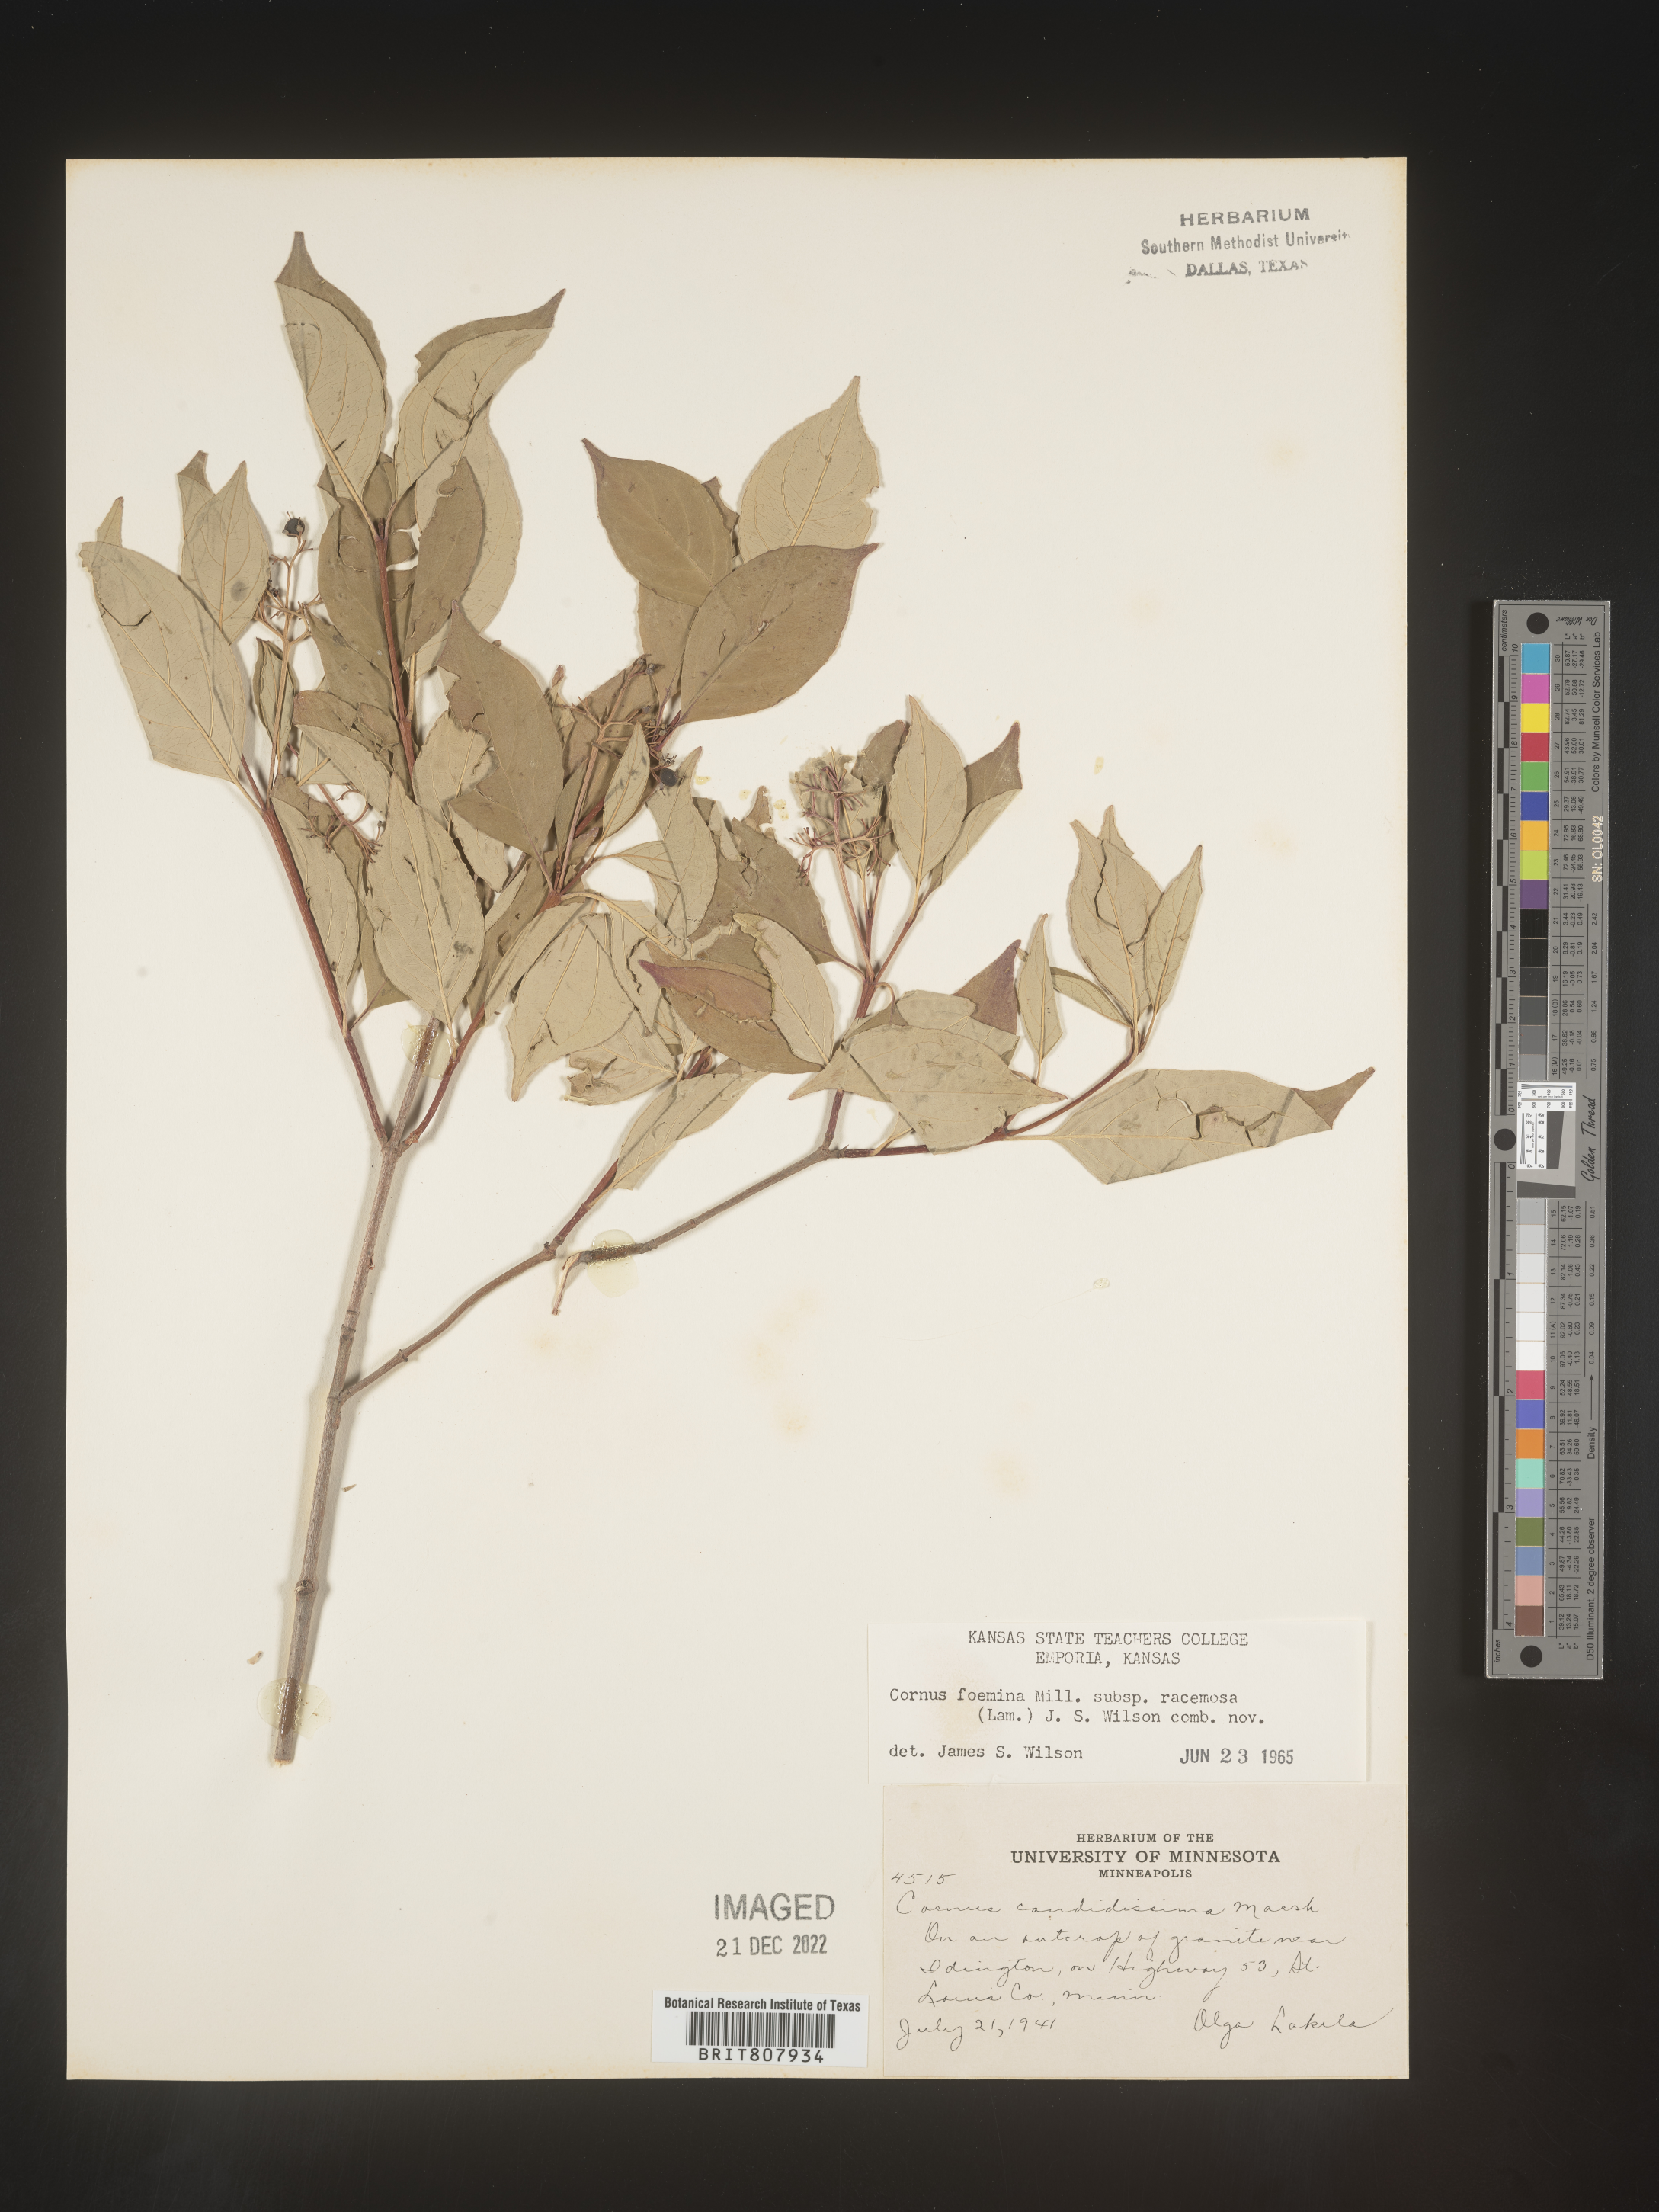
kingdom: Plantae
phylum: Tracheophyta
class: Magnoliopsida
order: Cornales
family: Cornaceae
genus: Cornus
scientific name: Cornus racemosa
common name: Panicled dogwood
